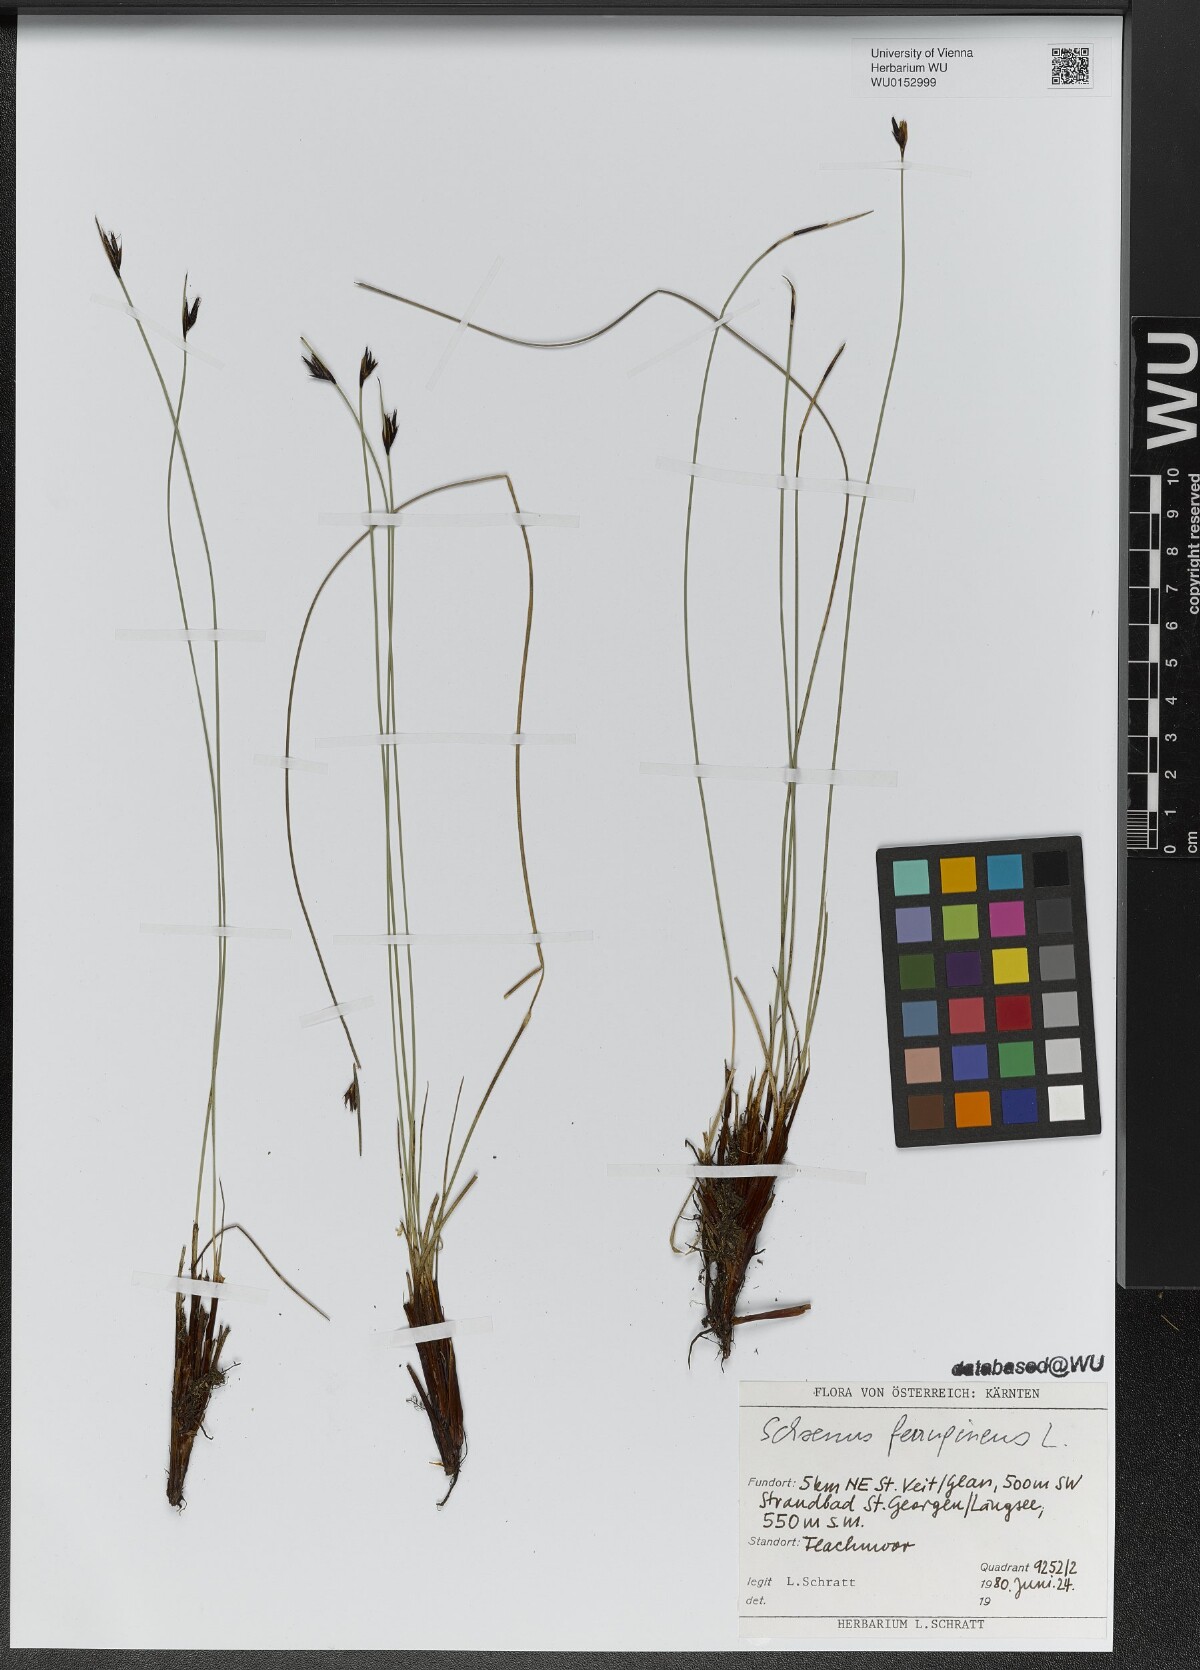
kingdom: Plantae
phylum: Tracheophyta
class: Liliopsida
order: Poales
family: Cyperaceae
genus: Schoenus
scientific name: Schoenus ferrugineus
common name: Brown bog-rush
